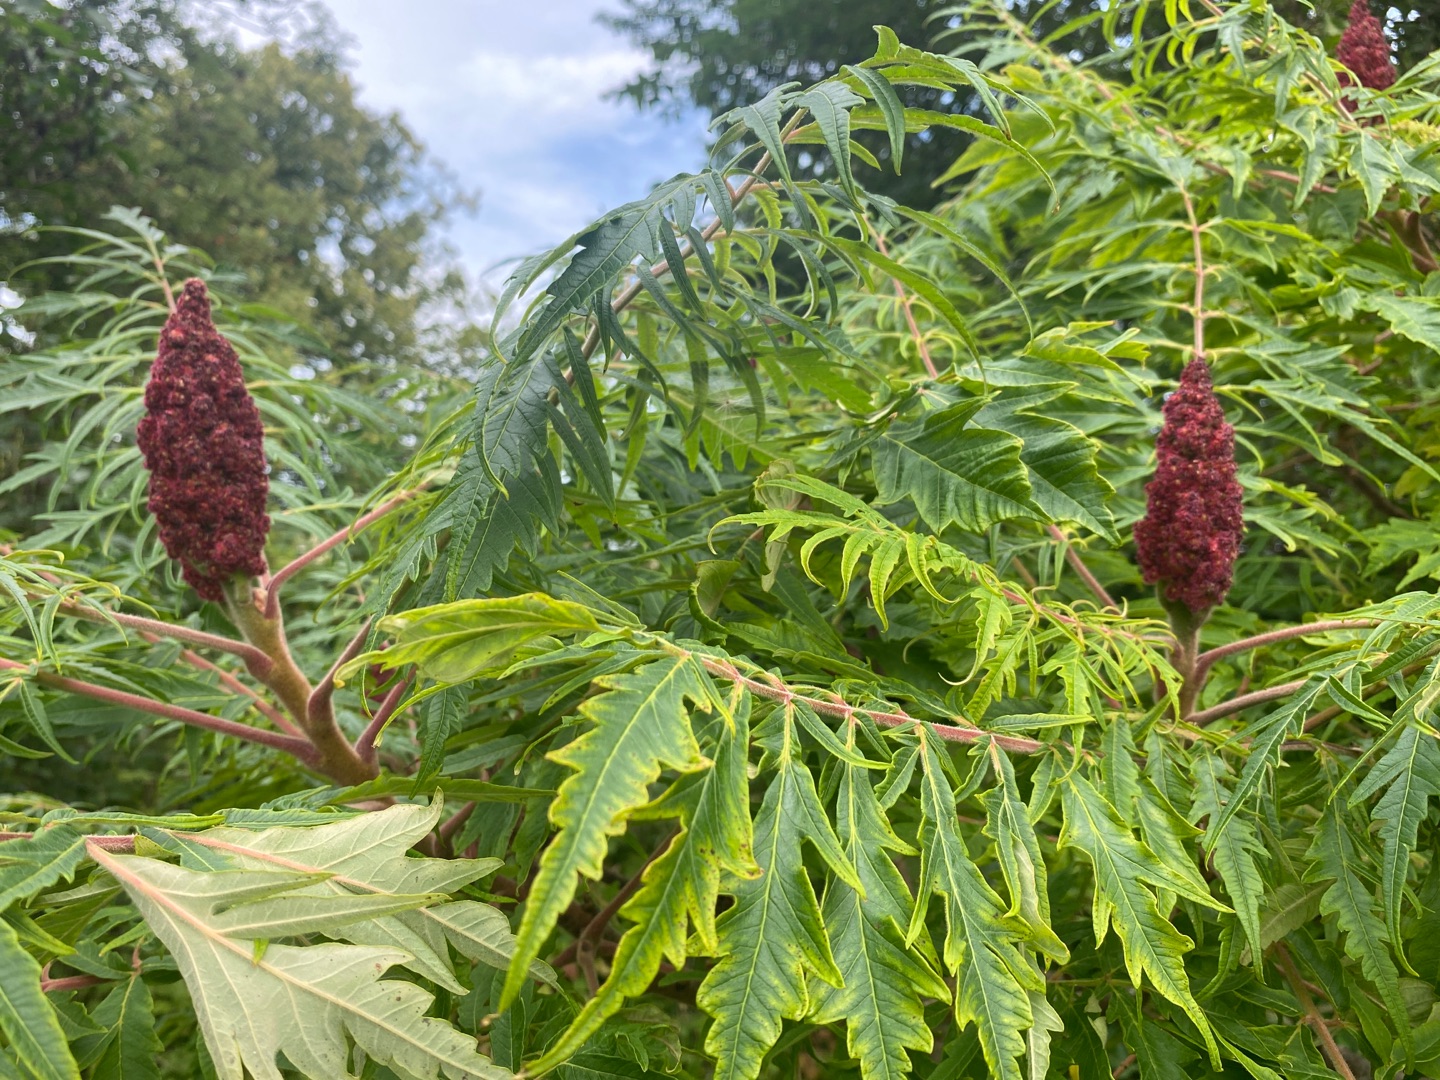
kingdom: Plantae
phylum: Tracheophyta
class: Magnoliopsida
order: Sapindales
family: Anacardiaceae
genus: Rhus
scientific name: Rhus typhina
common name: Hjortetaktræ
